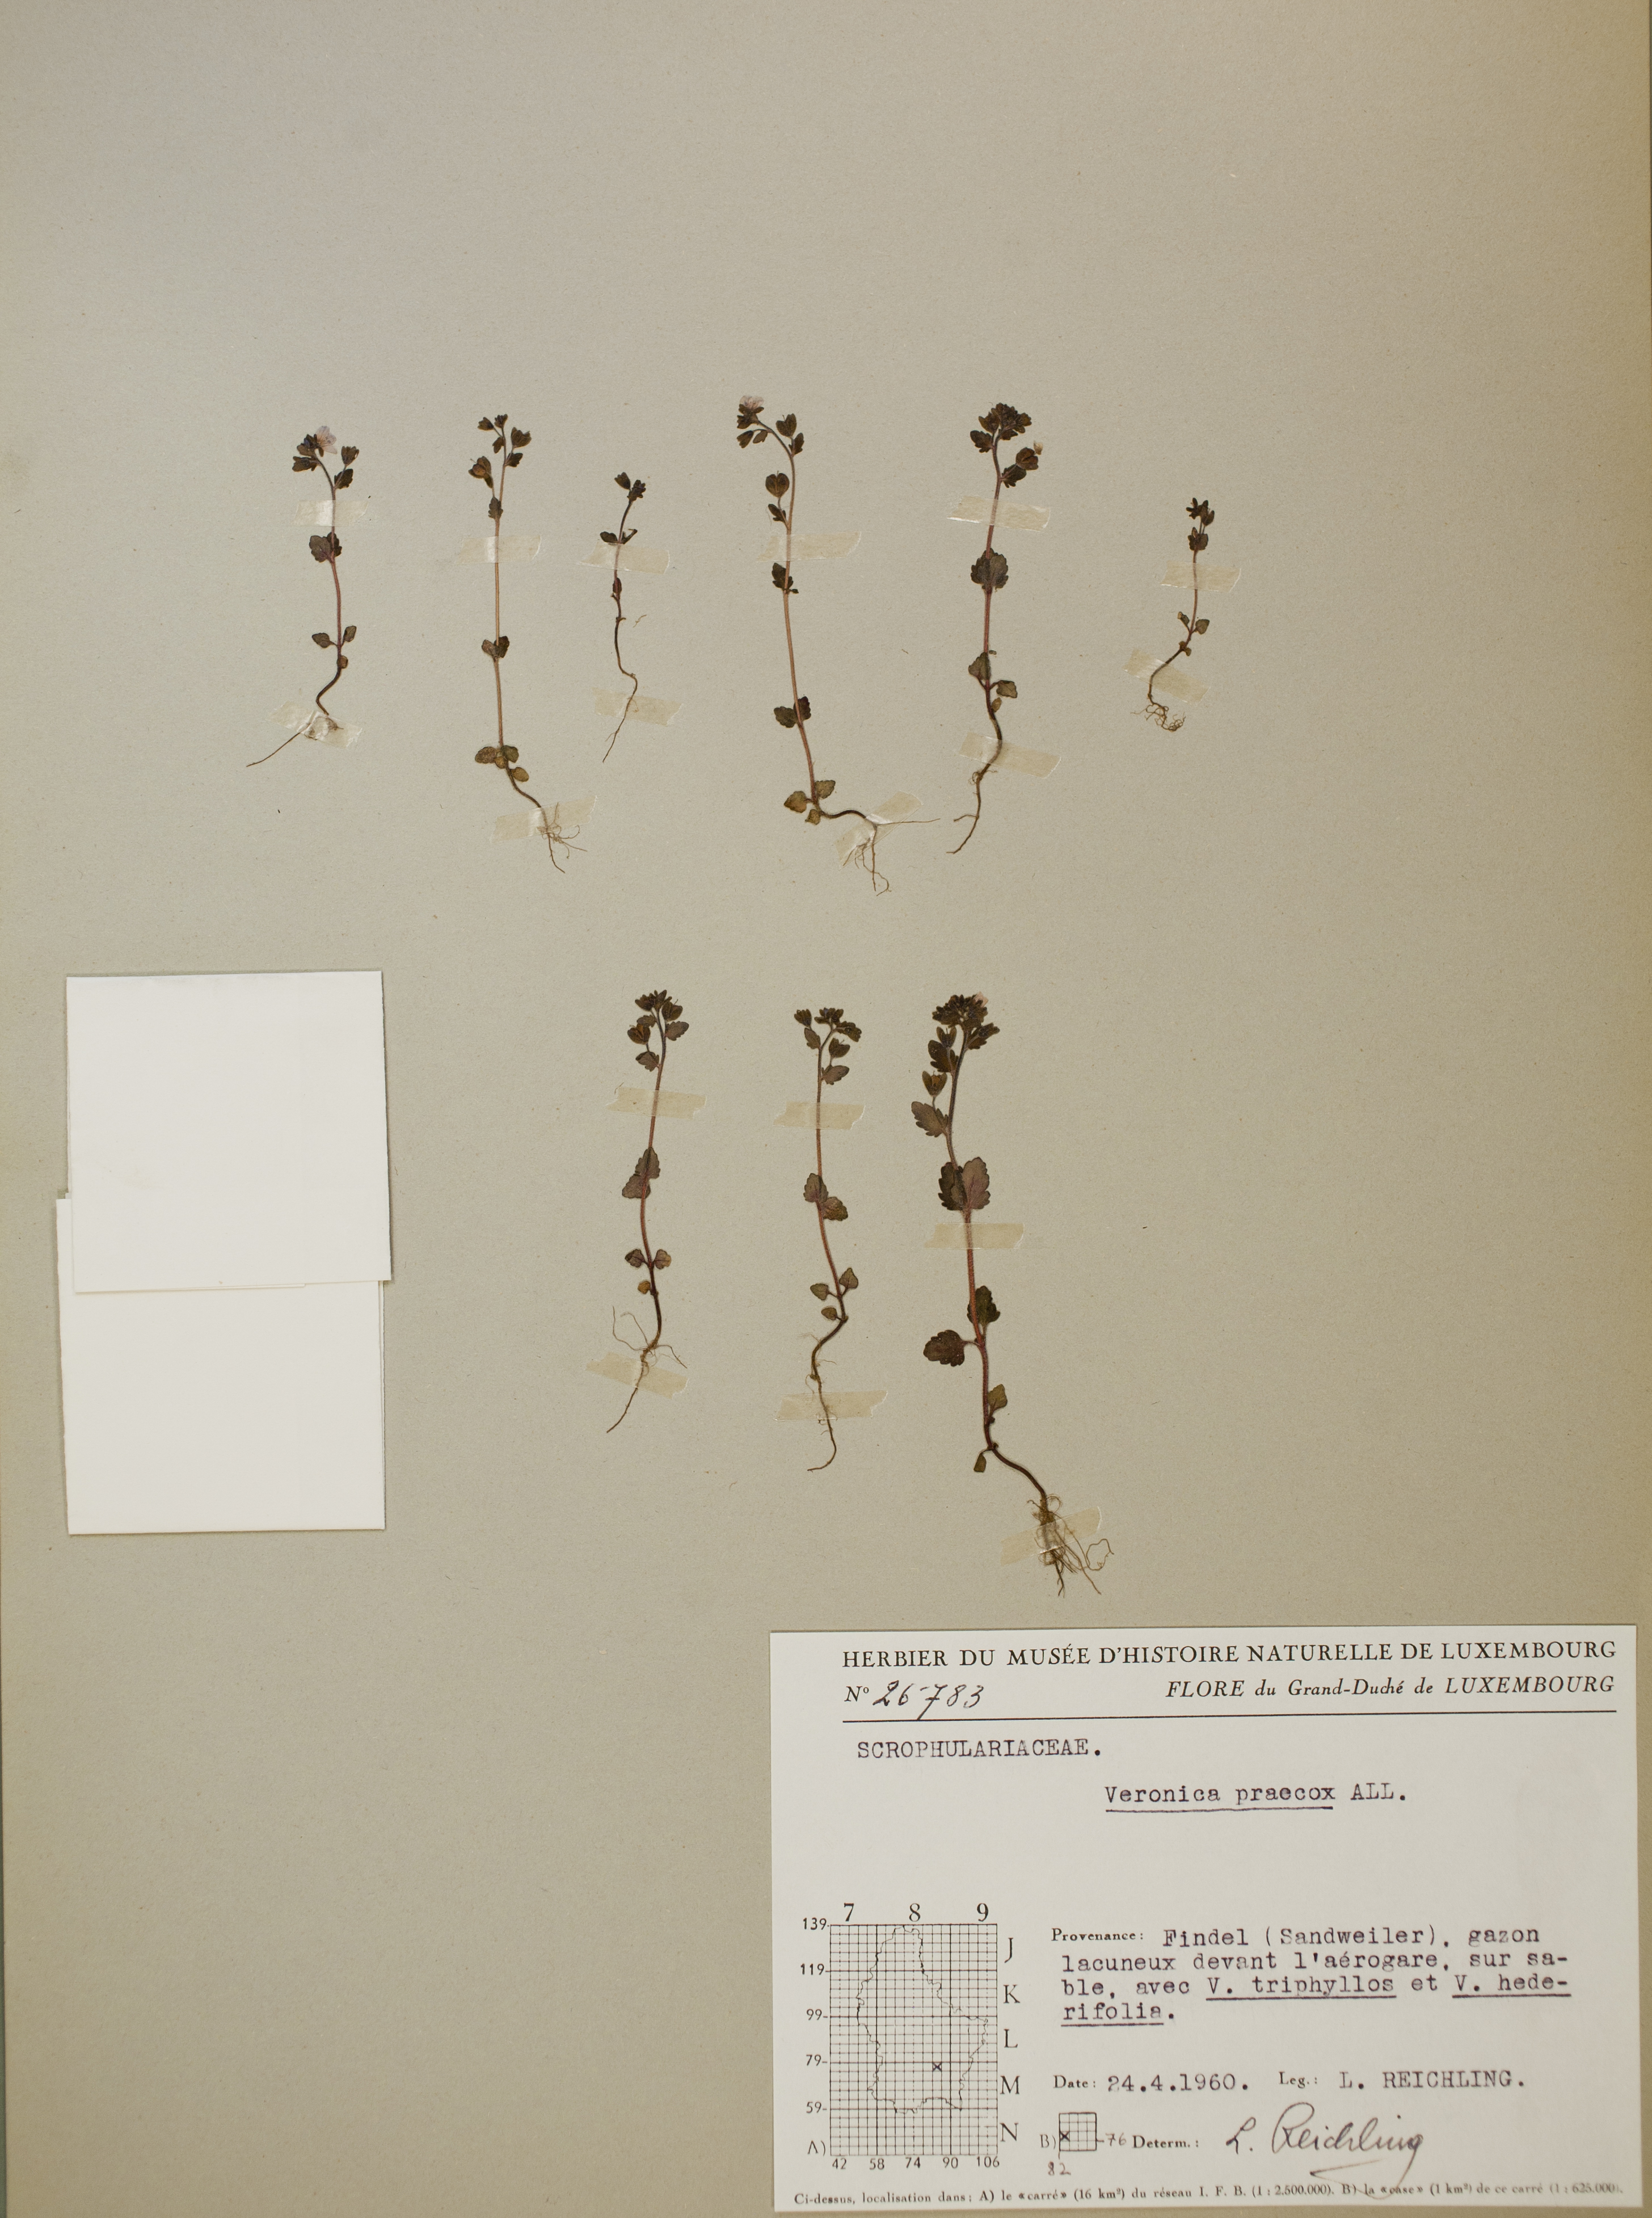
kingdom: Plantae
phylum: Tracheophyta
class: Magnoliopsida
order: Lamiales
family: Plantaginaceae
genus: Veronica
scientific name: Veronica praecox
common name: Breckland speedwell
